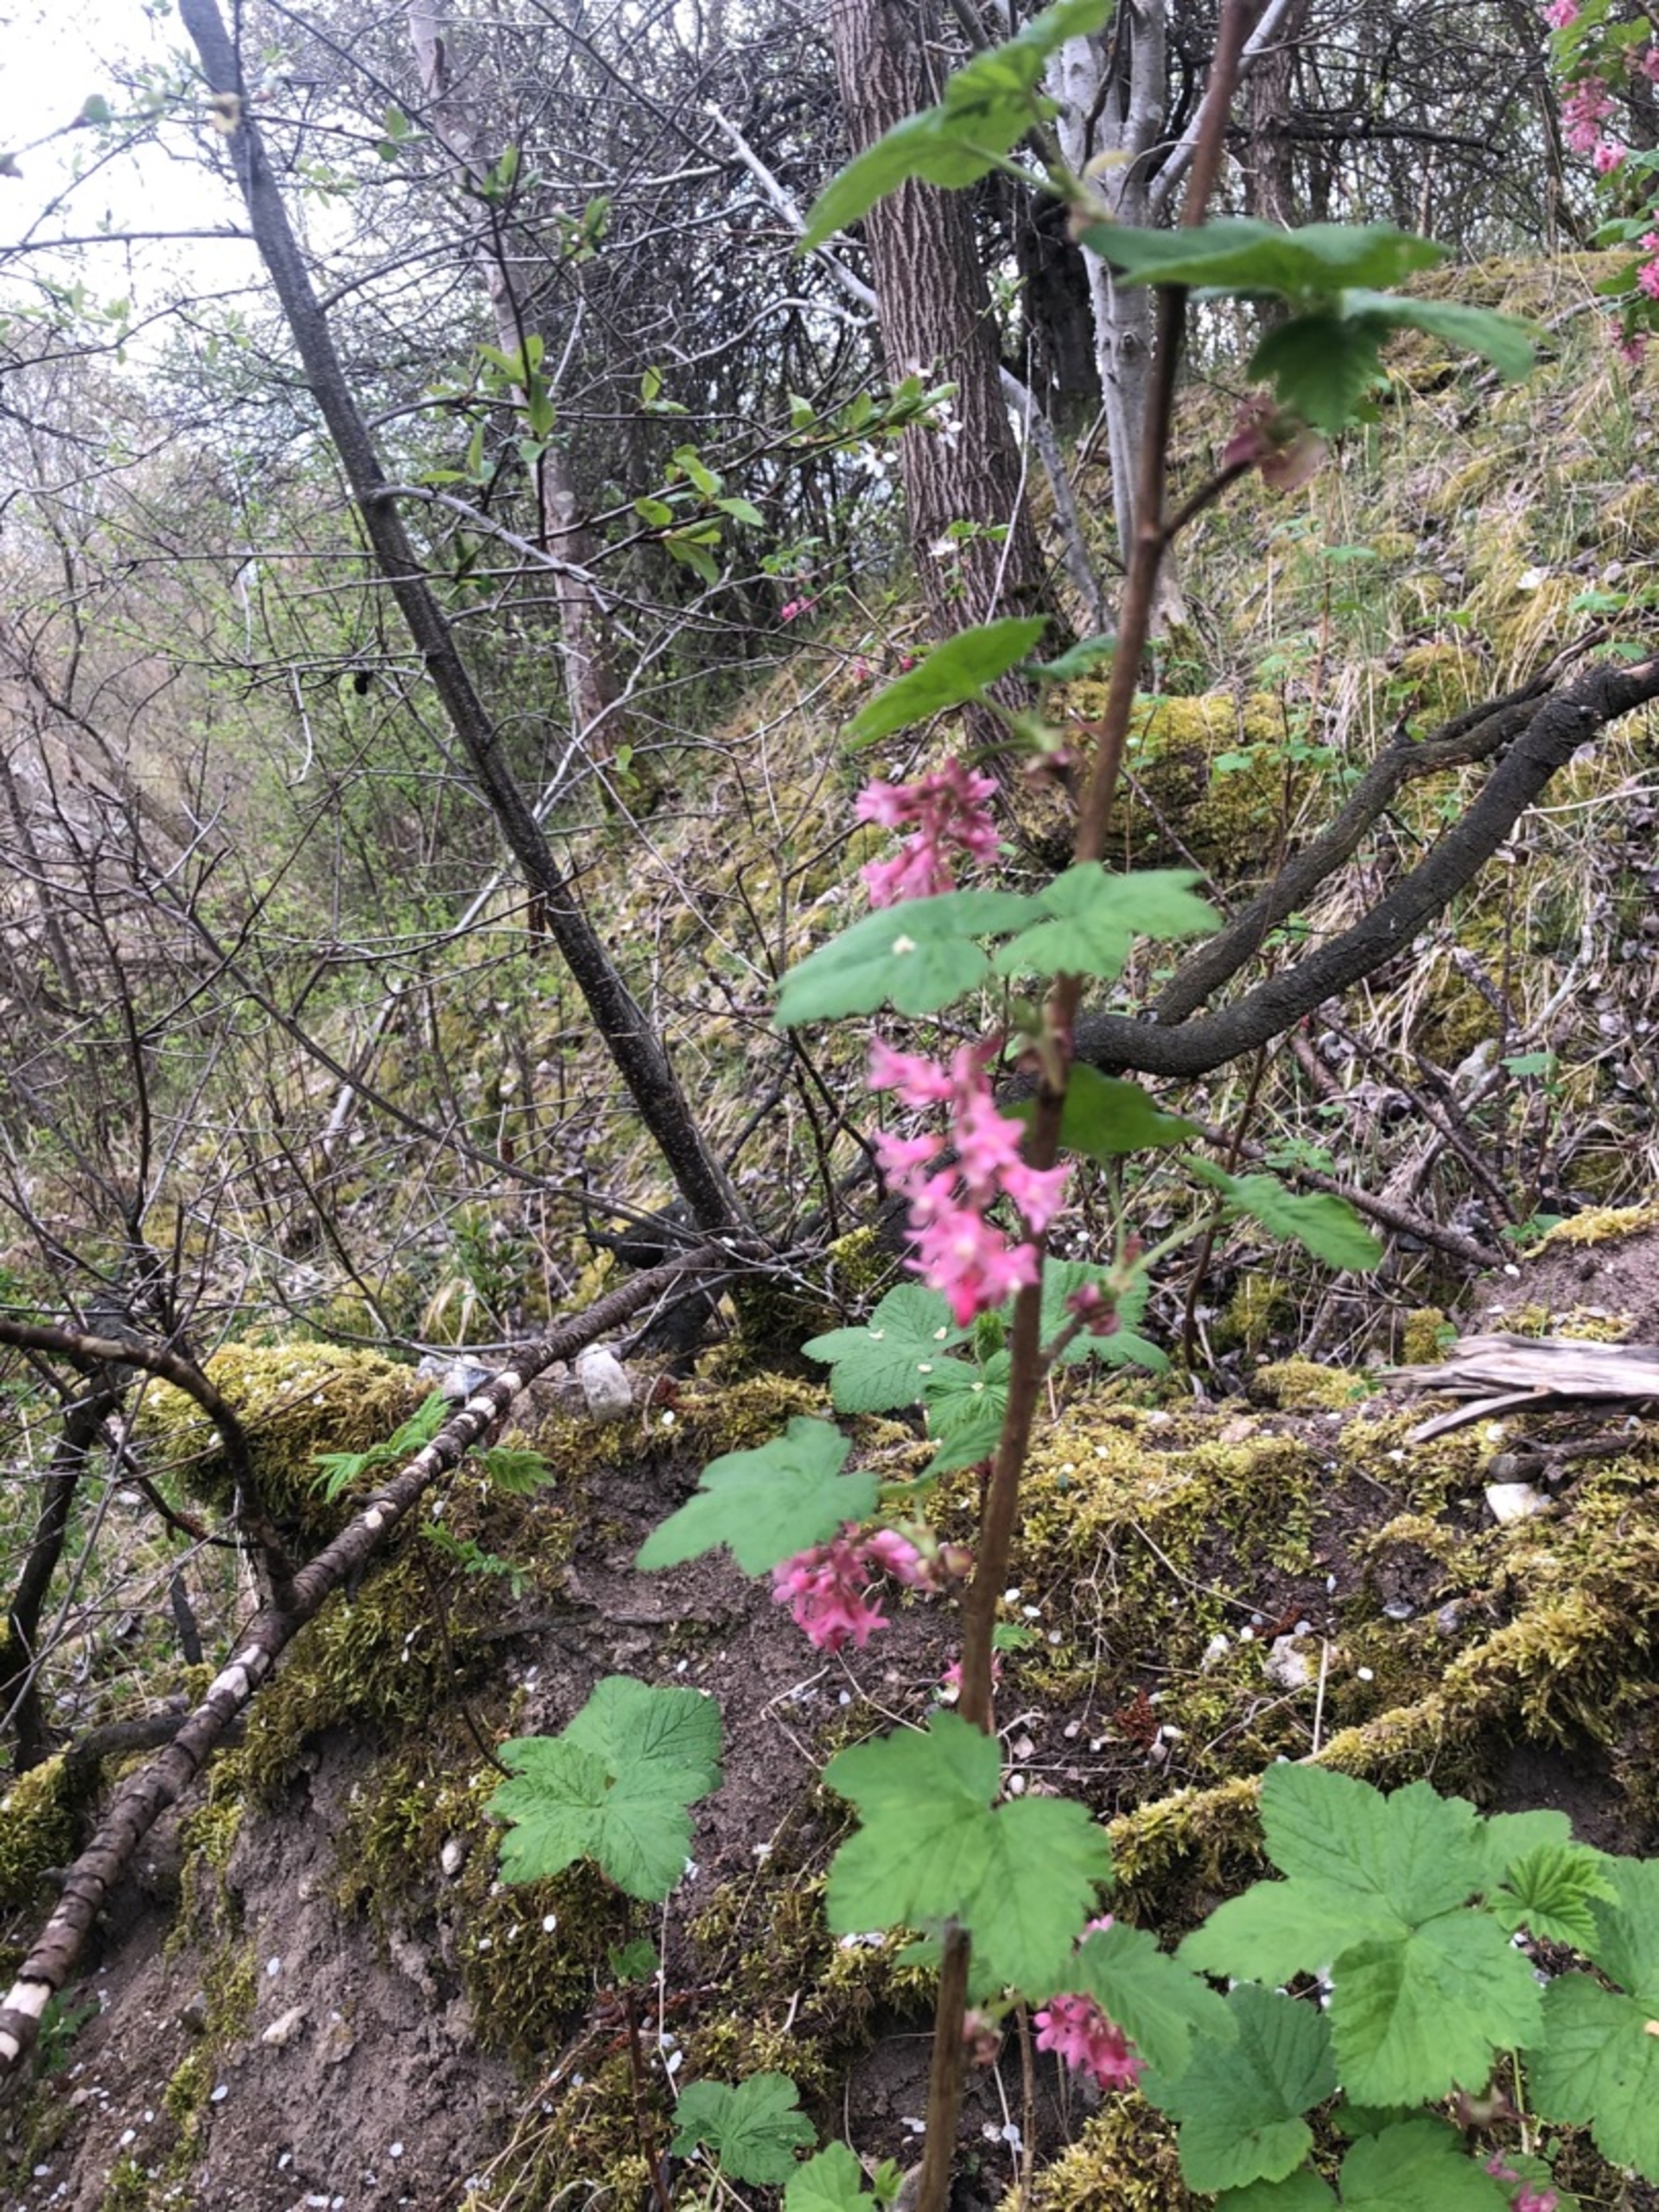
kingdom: Plantae
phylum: Tracheophyta
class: Magnoliopsida
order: Saxifragales
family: Grossulariaceae
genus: Ribes
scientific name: Ribes sanguineum
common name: Blod-ribs
